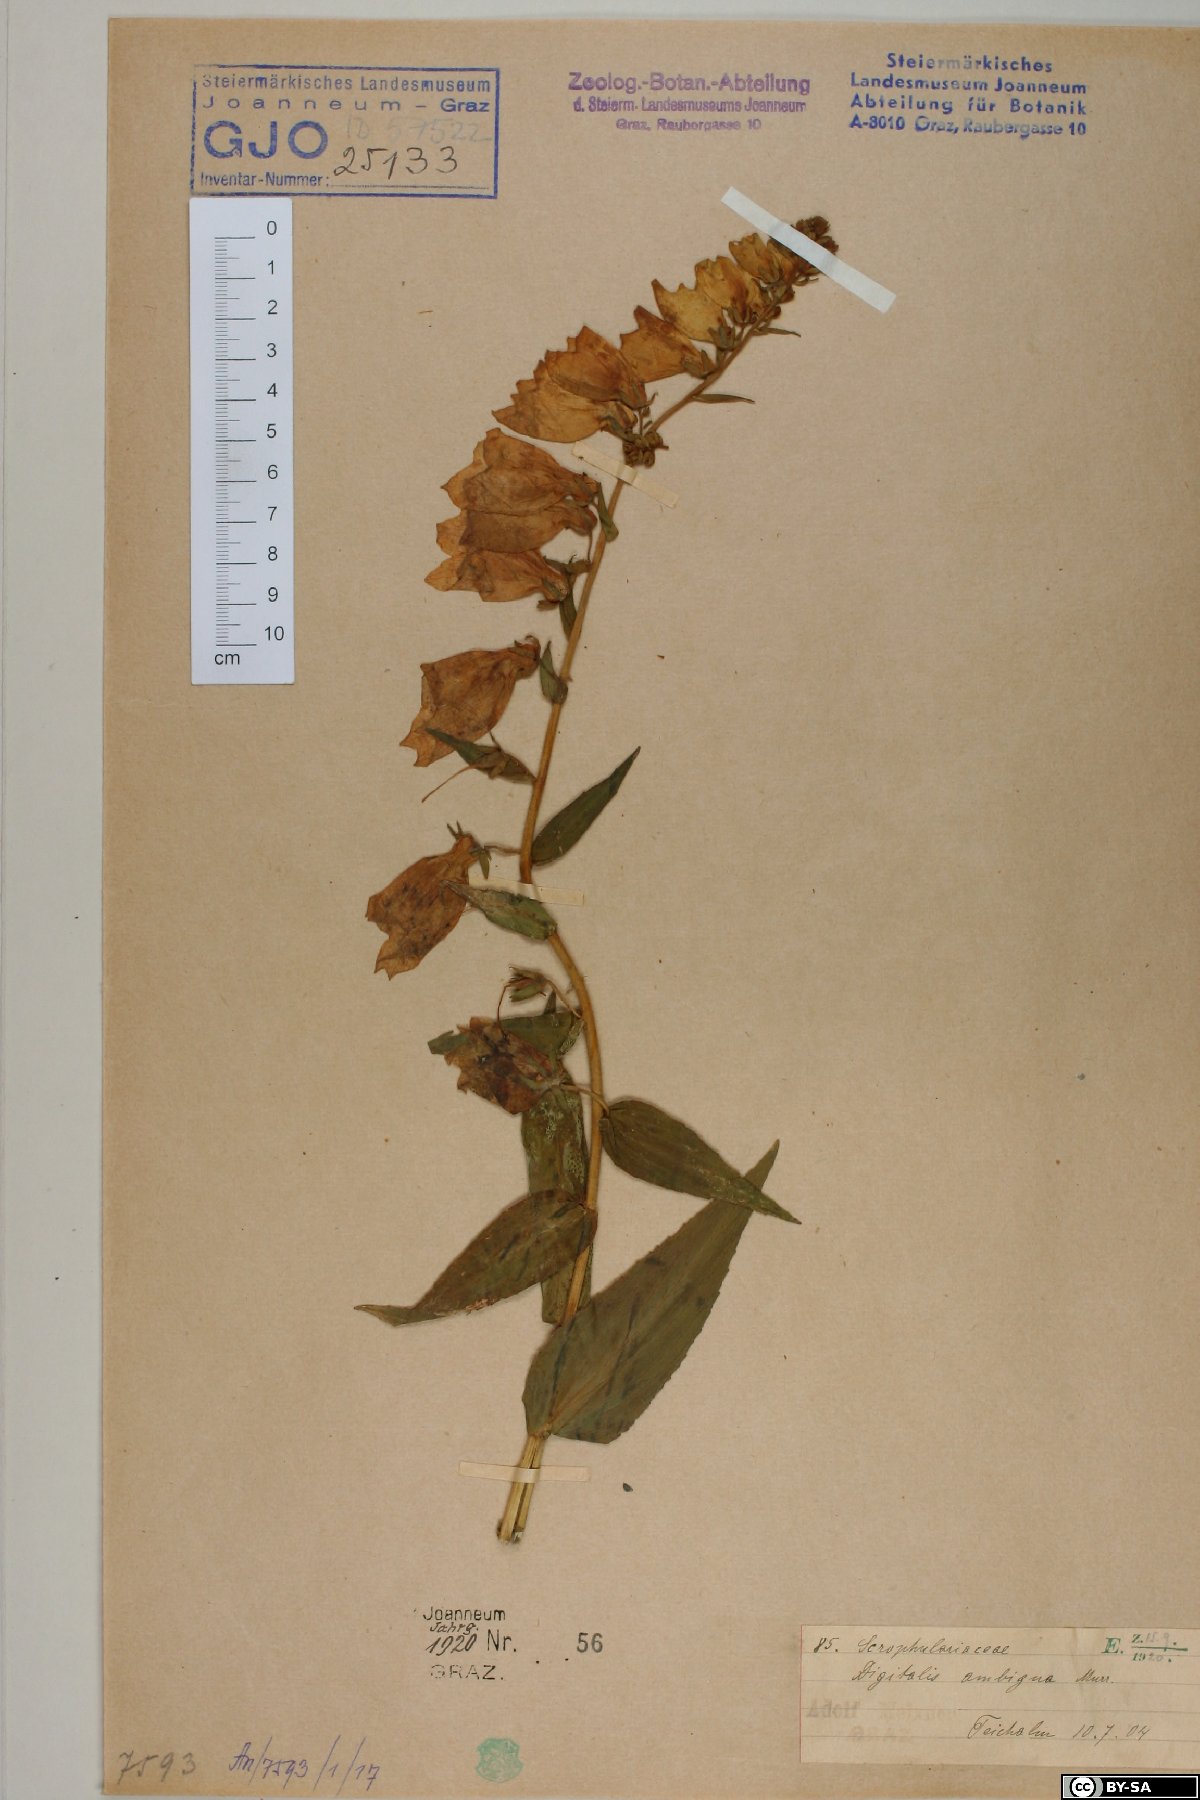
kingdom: Plantae
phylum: Tracheophyta
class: Magnoliopsida
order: Lamiales
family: Plantaginaceae
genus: Digitalis
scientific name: Digitalis grandiflora
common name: Yellow foxglove
